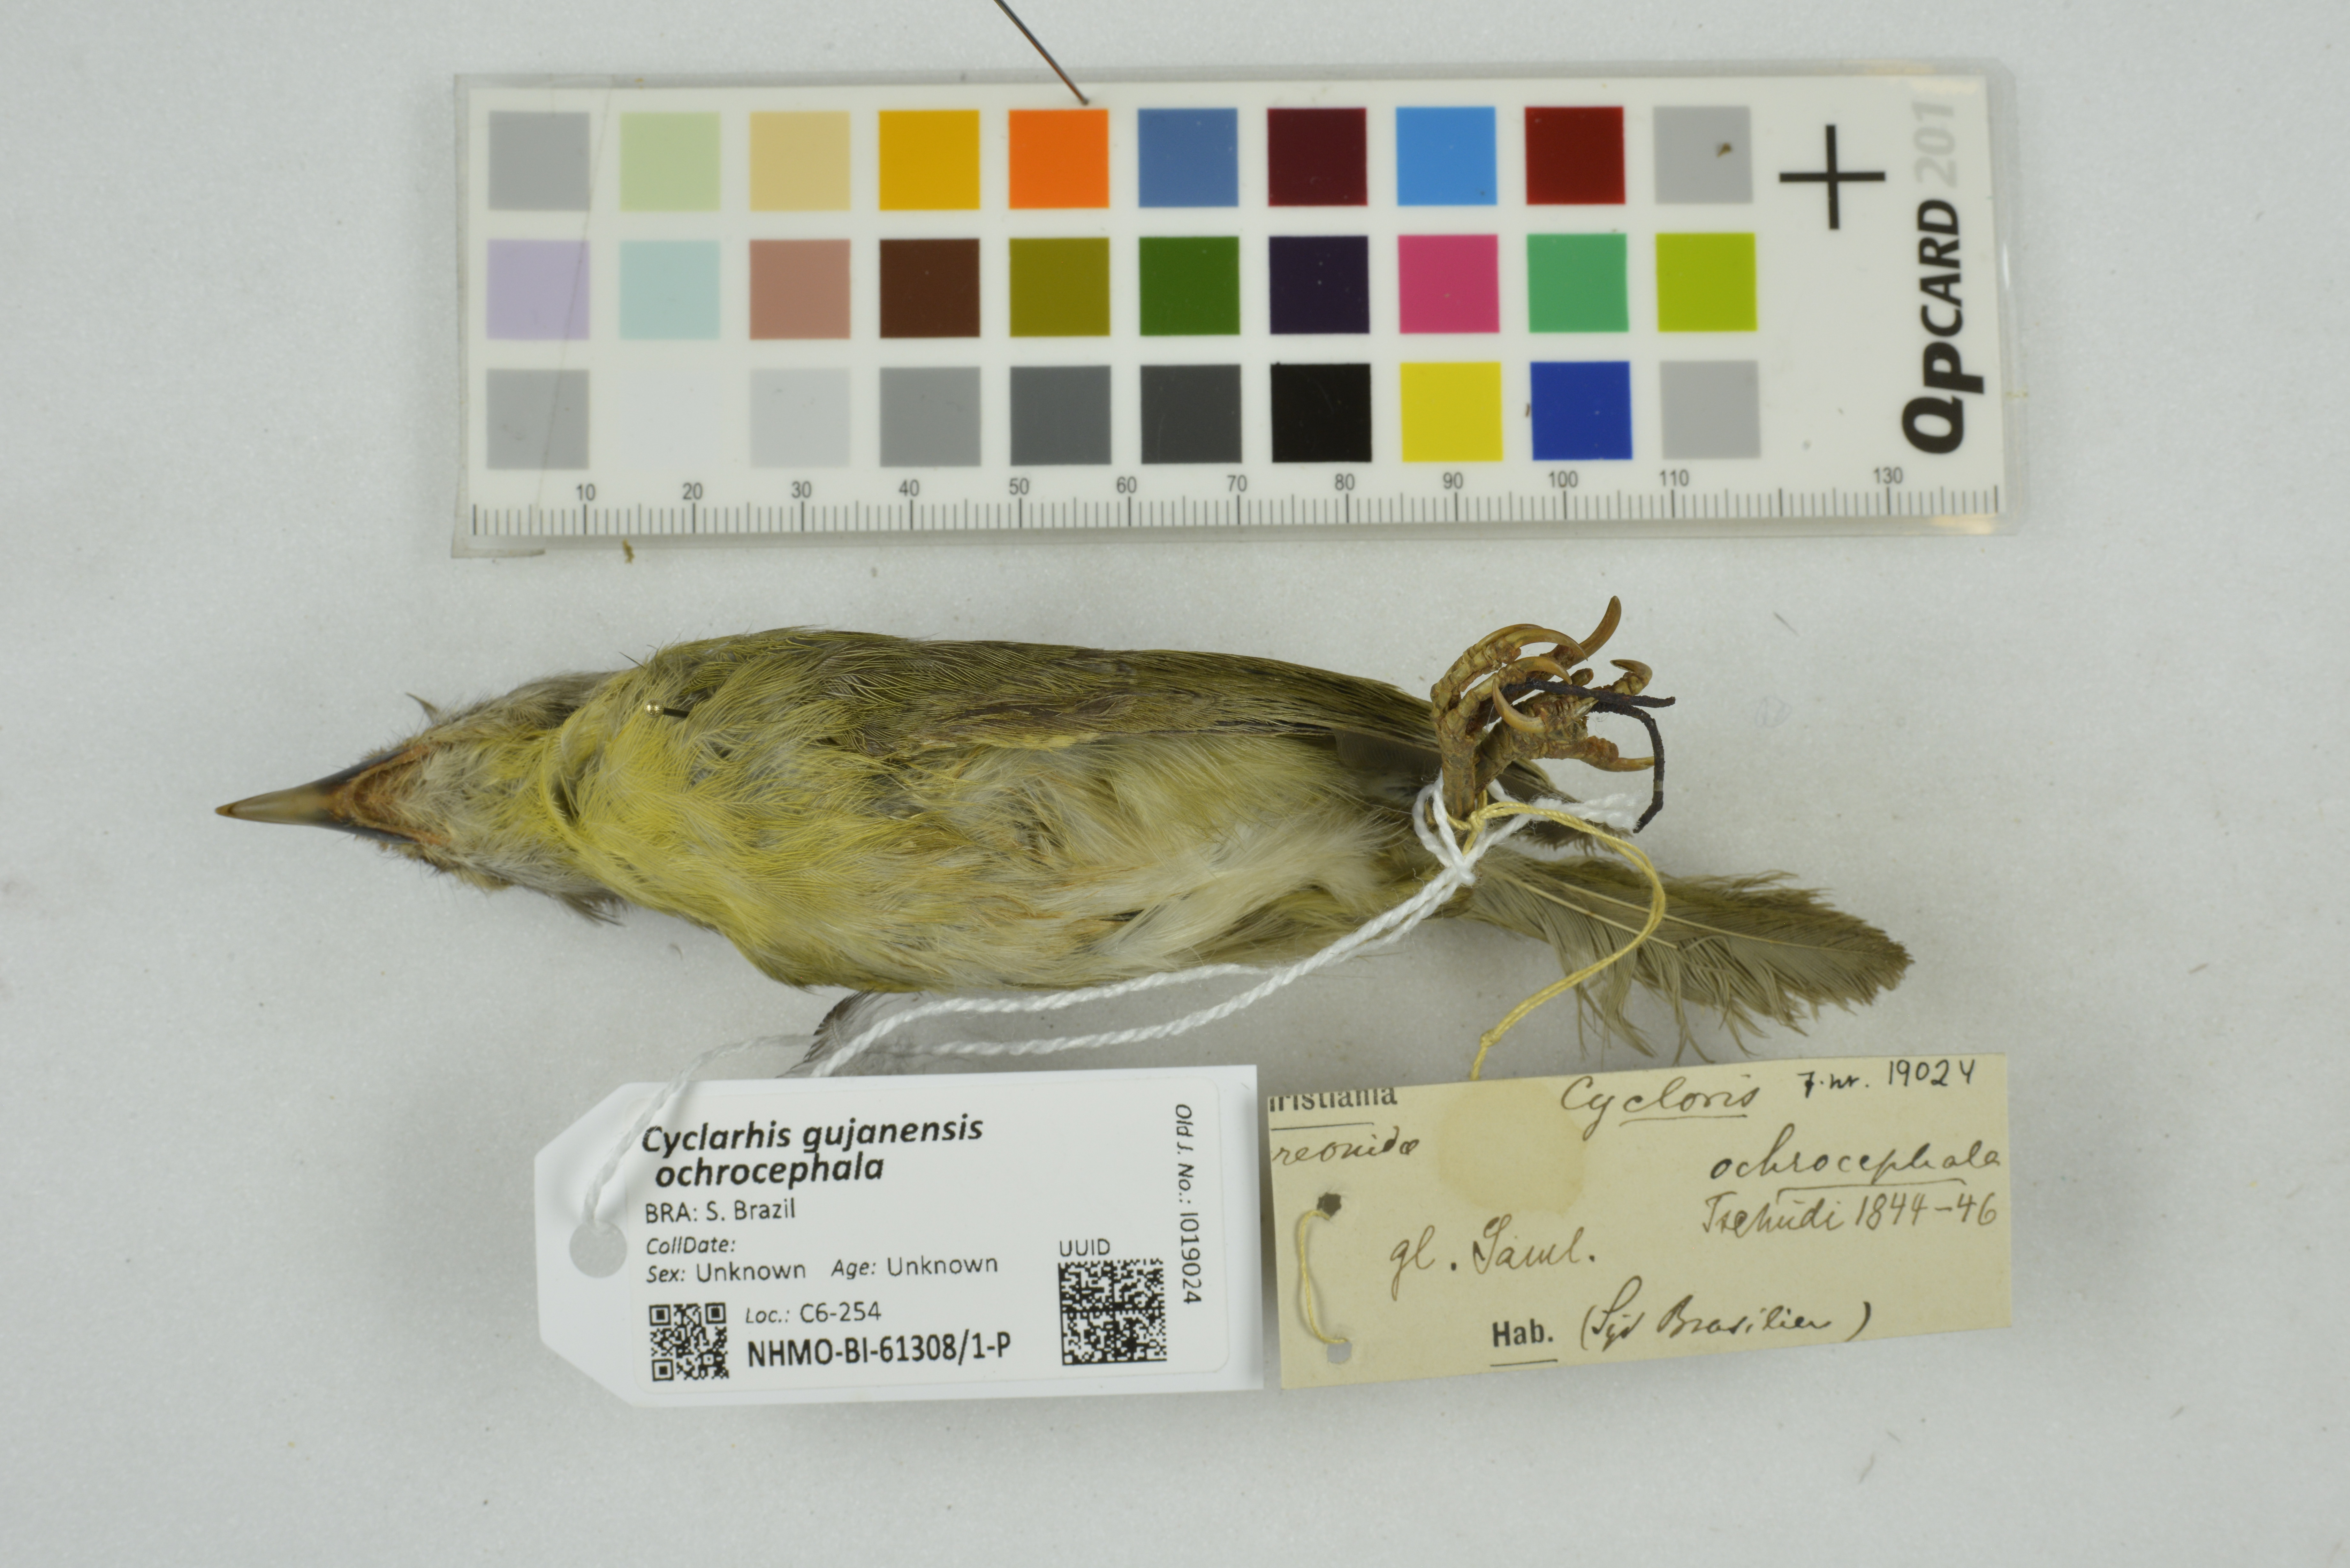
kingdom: Animalia
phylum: Chordata
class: Aves
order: Passeriformes
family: Vireonidae
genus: Cyclarhis
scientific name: Cyclarhis gujanensis
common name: Rufous-browed peppershrike
